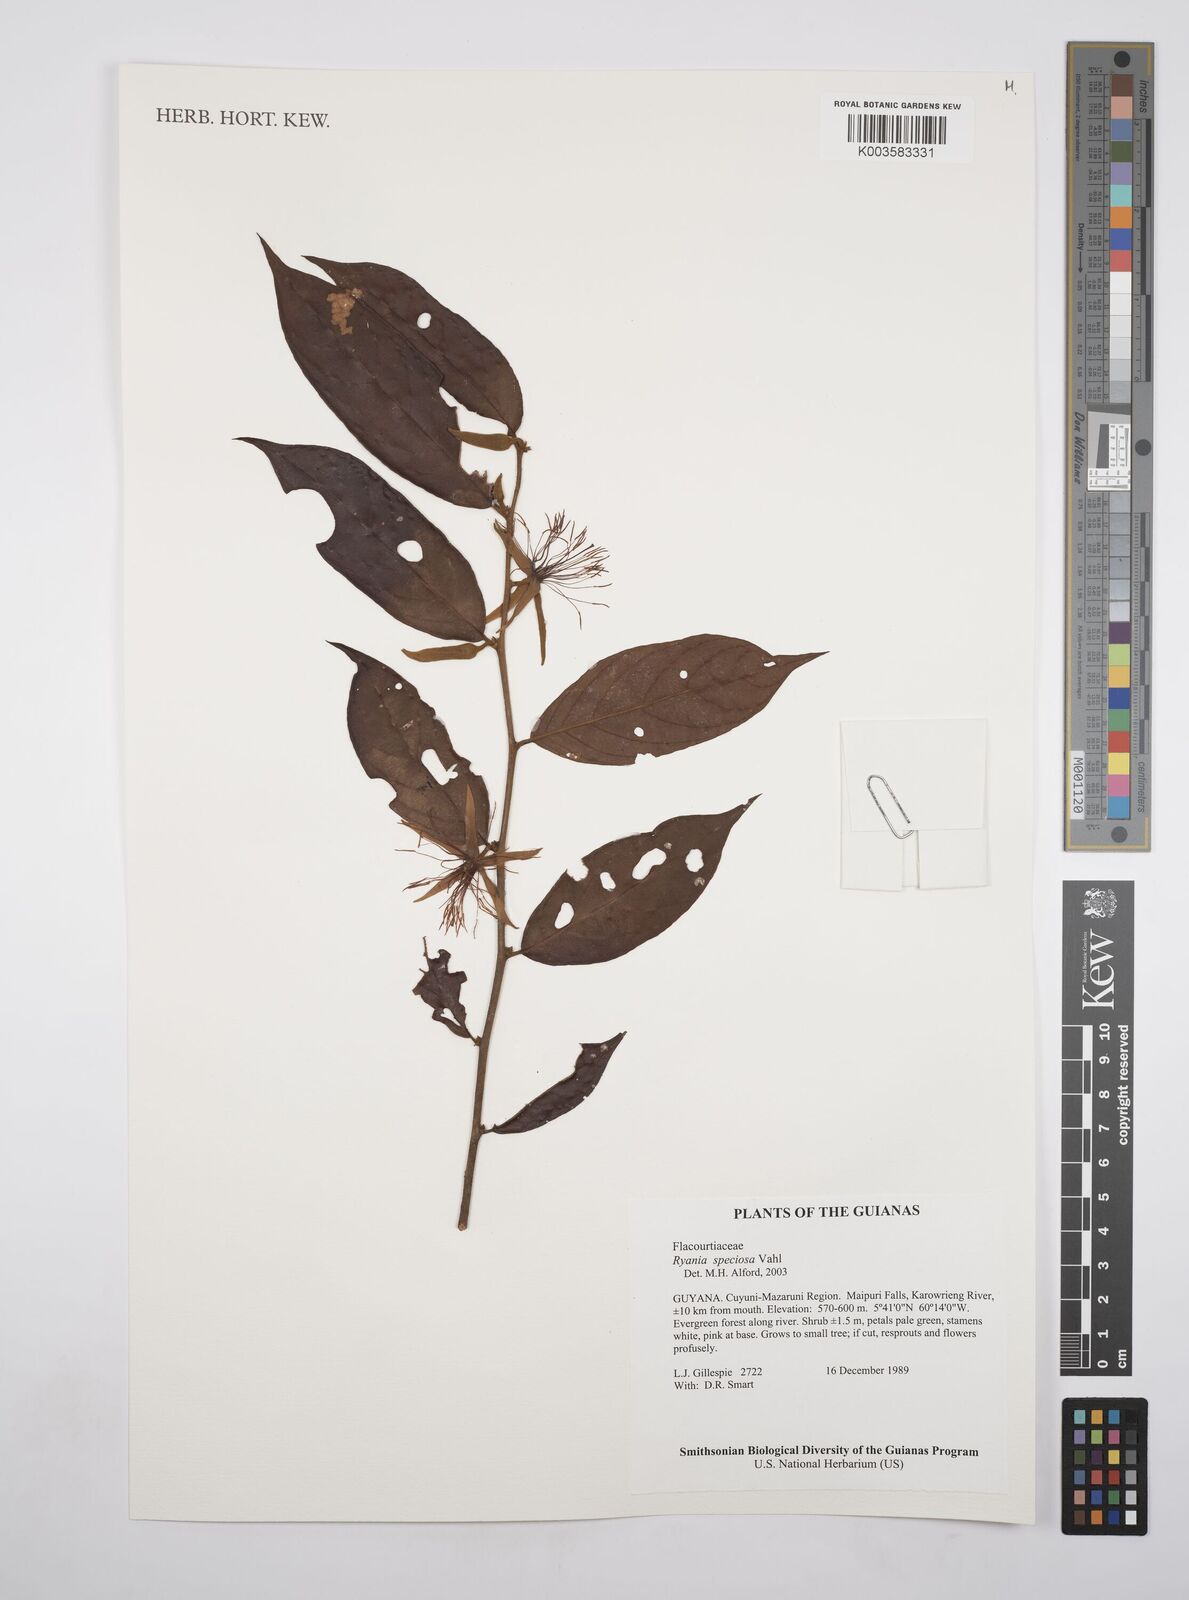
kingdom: Plantae
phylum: Tracheophyta
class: Magnoliopsida
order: Malpighiales
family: Salicaceae
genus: Ryania
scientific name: Ryania speciosa
